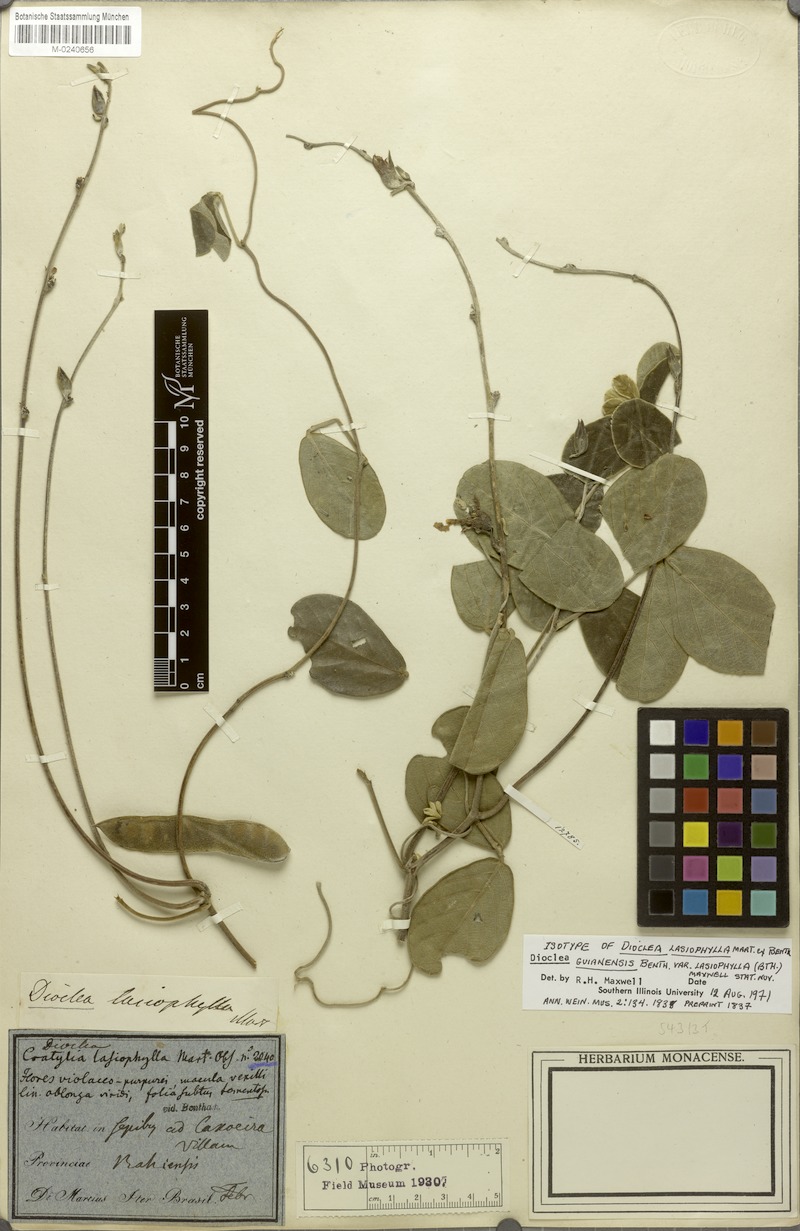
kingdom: Plantae
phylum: Tracheophyta
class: Magnoliopsida
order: Fabales
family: Fabaceae
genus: Dioclea
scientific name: Dioclea guianensis
